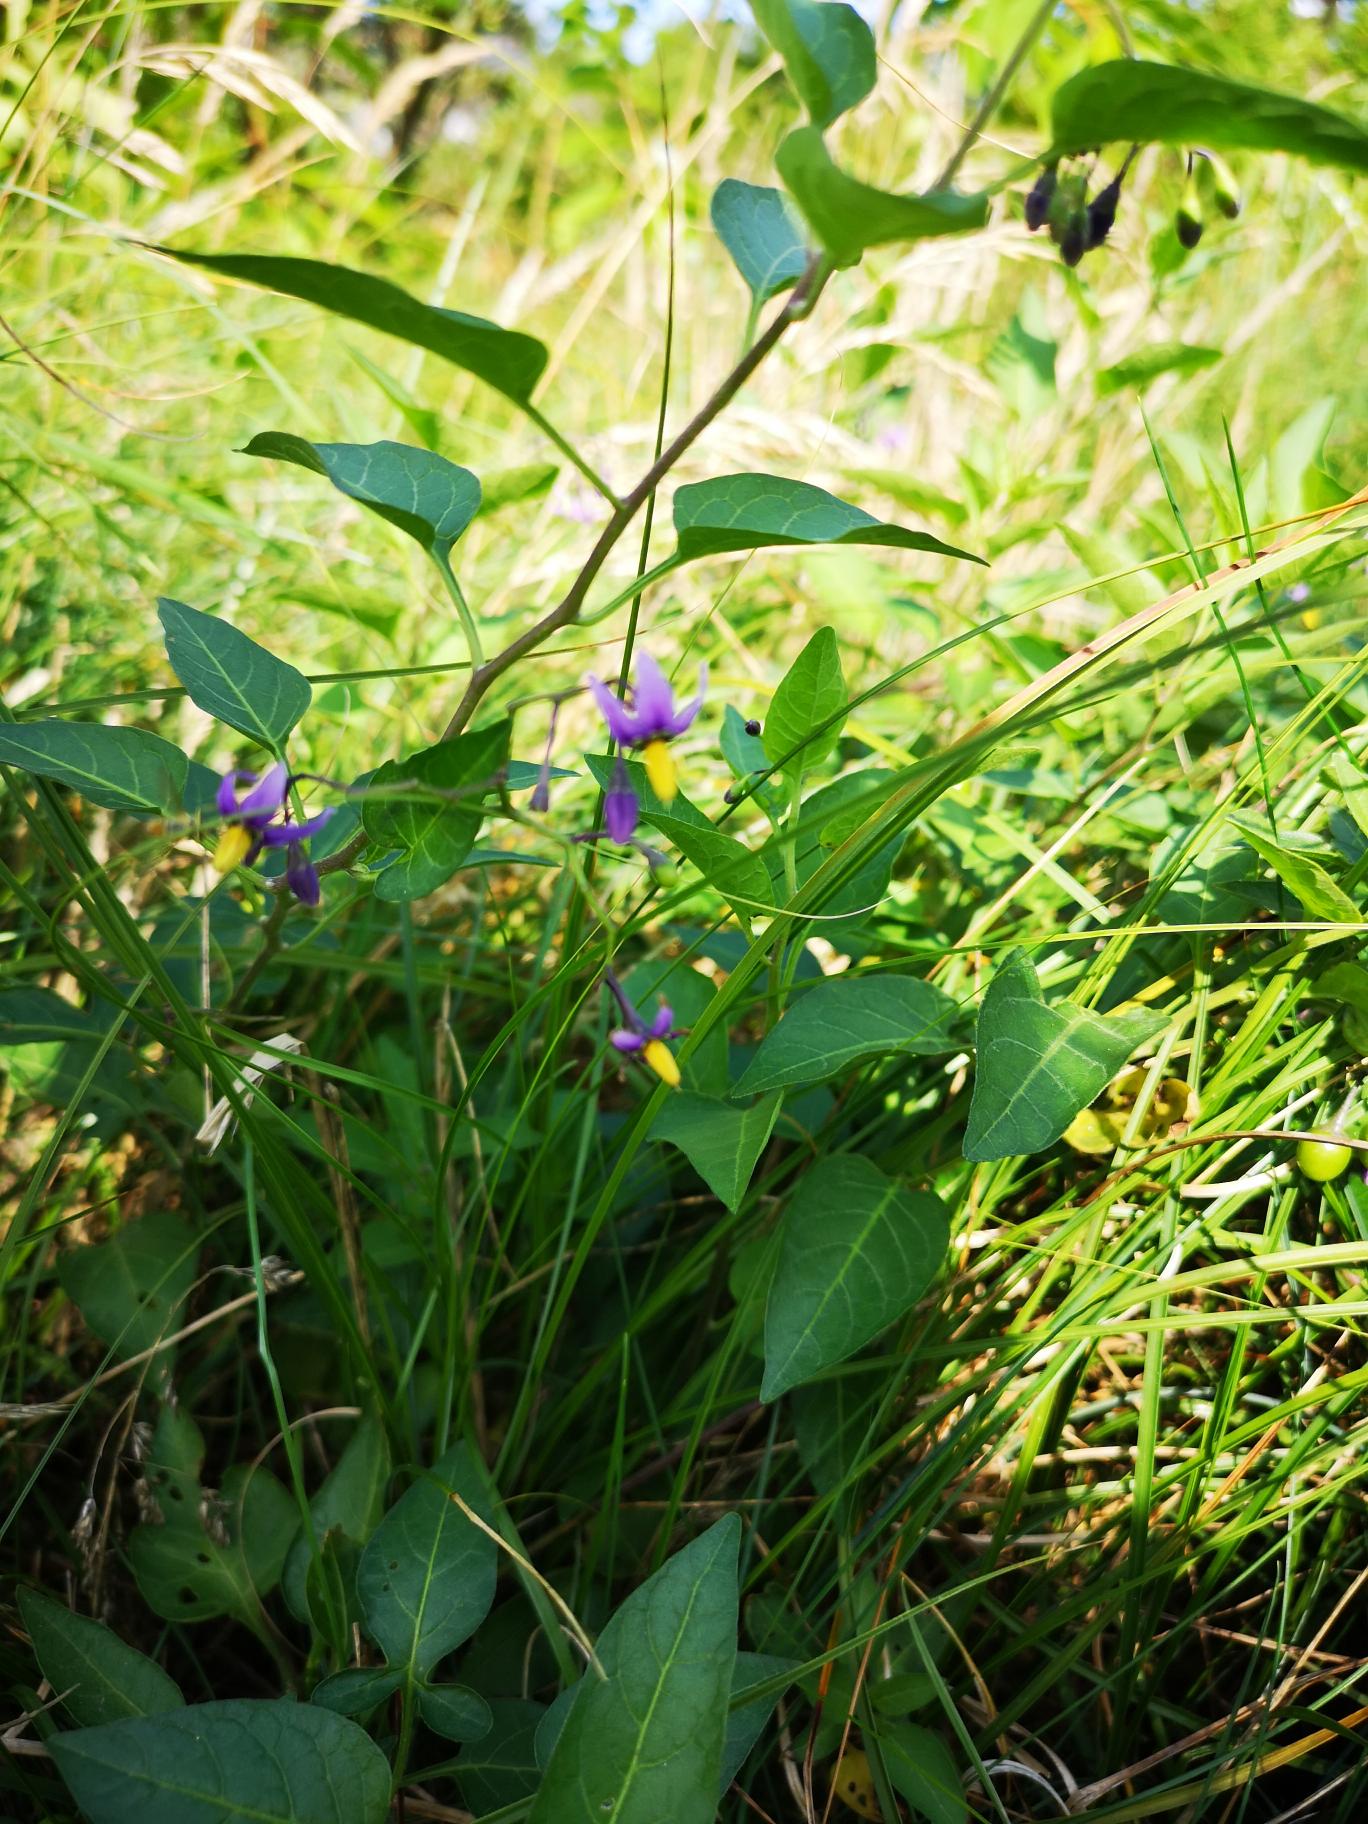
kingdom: Plantae
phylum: Tracheophyta
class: Magnoliopsida
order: Solanales
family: Solanaceae
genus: Solanum
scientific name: Solanum dulcamara
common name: Bittersød natskygge
